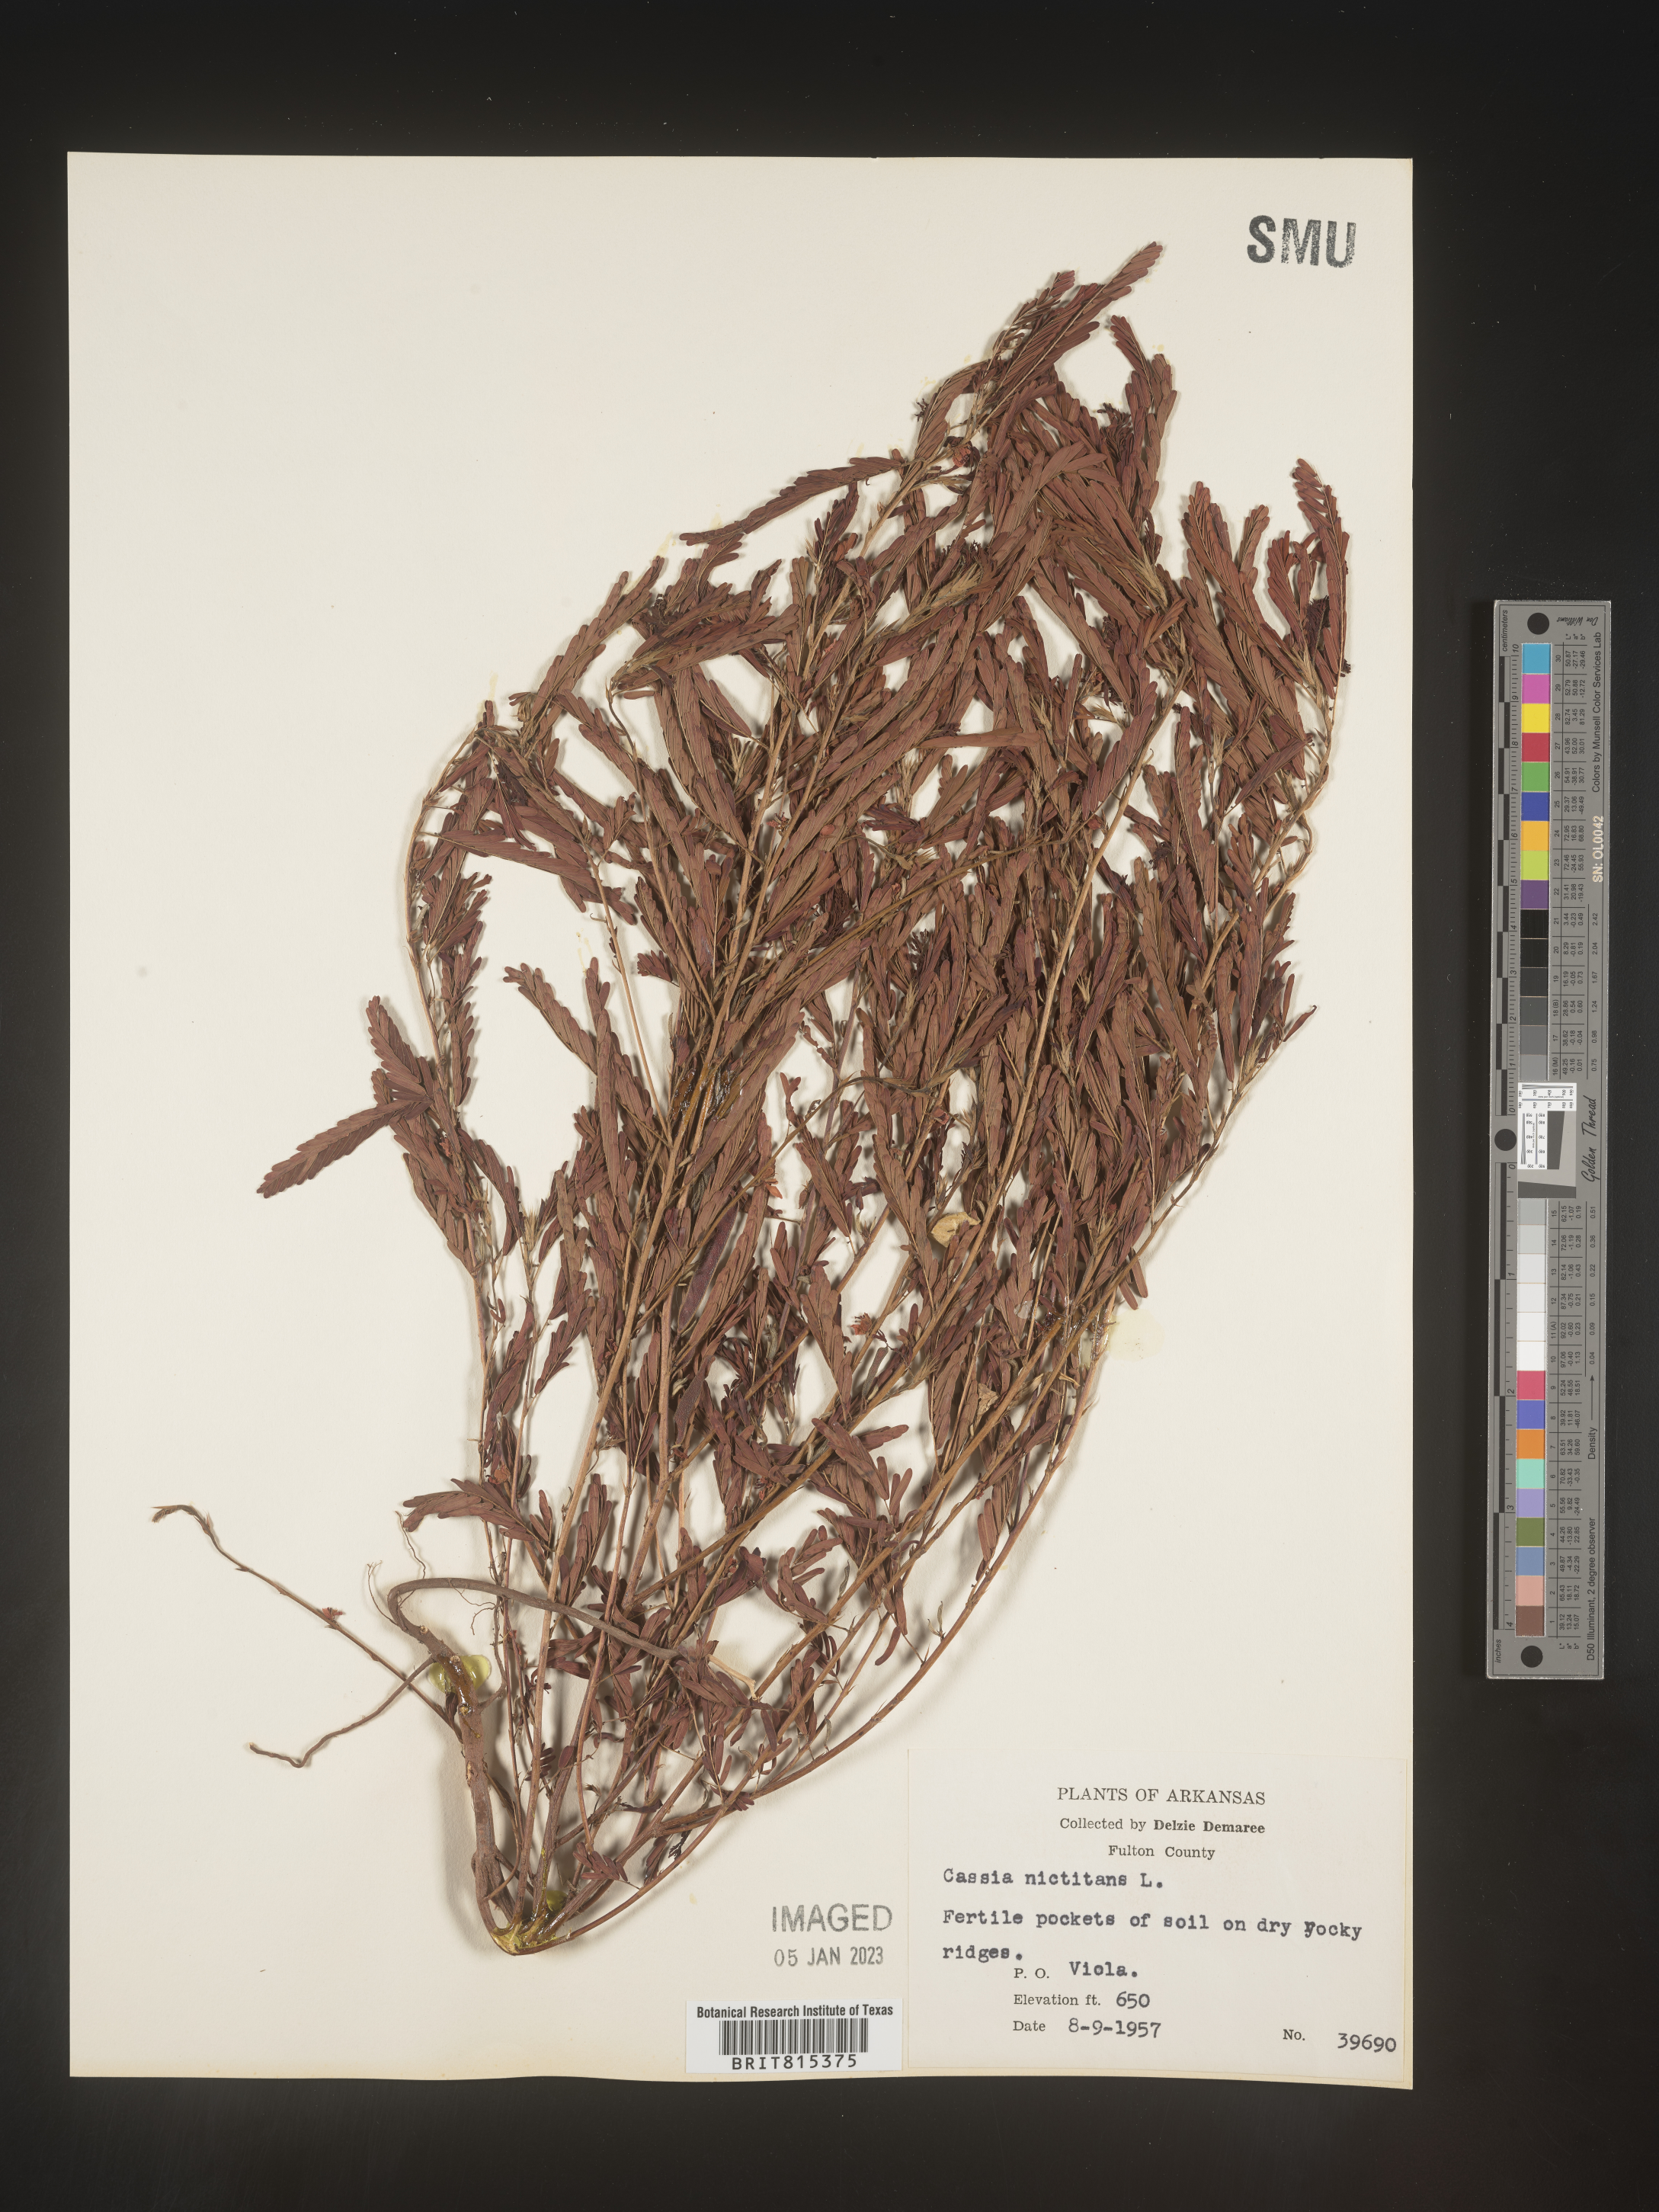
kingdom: Plantae
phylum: Tracheophyta
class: Magnoliopsida
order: Fabales
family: Fabaceae
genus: Chamaecrista
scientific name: Chamaecrista nictitans
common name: Sensitive cassia
